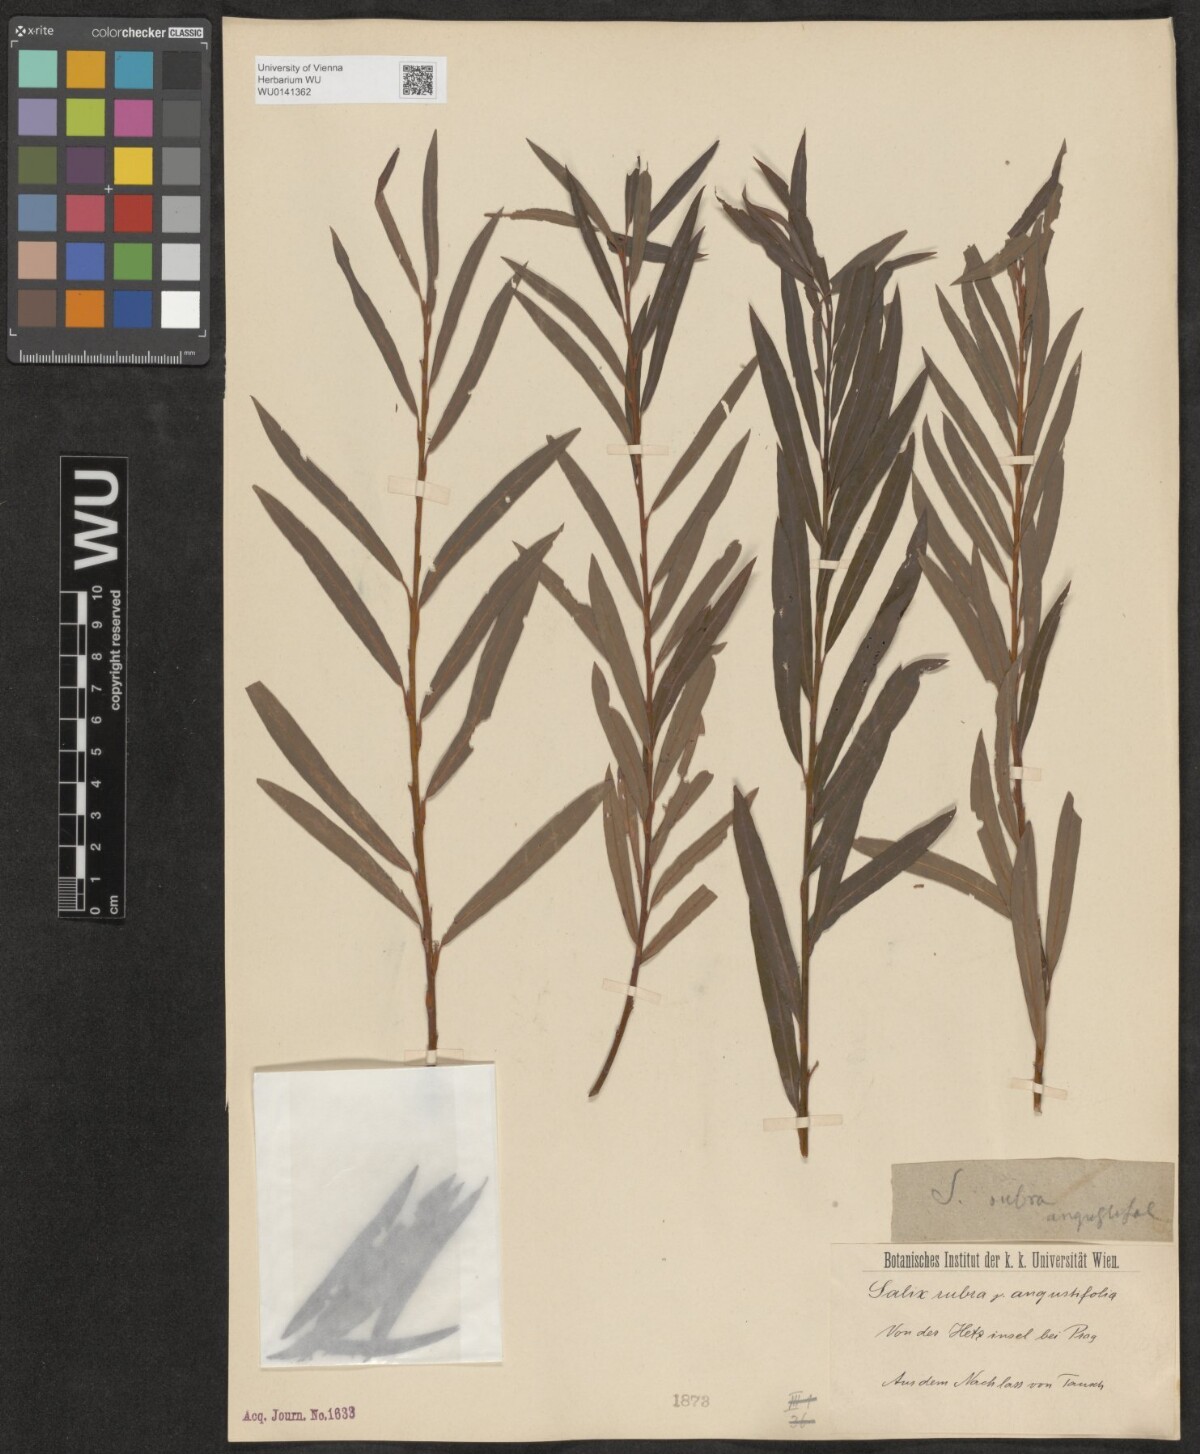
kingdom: Plantae
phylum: Tracheophyta
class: Magnoliopsida
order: Malpighiales
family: Salicaceae
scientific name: Salicaceae
